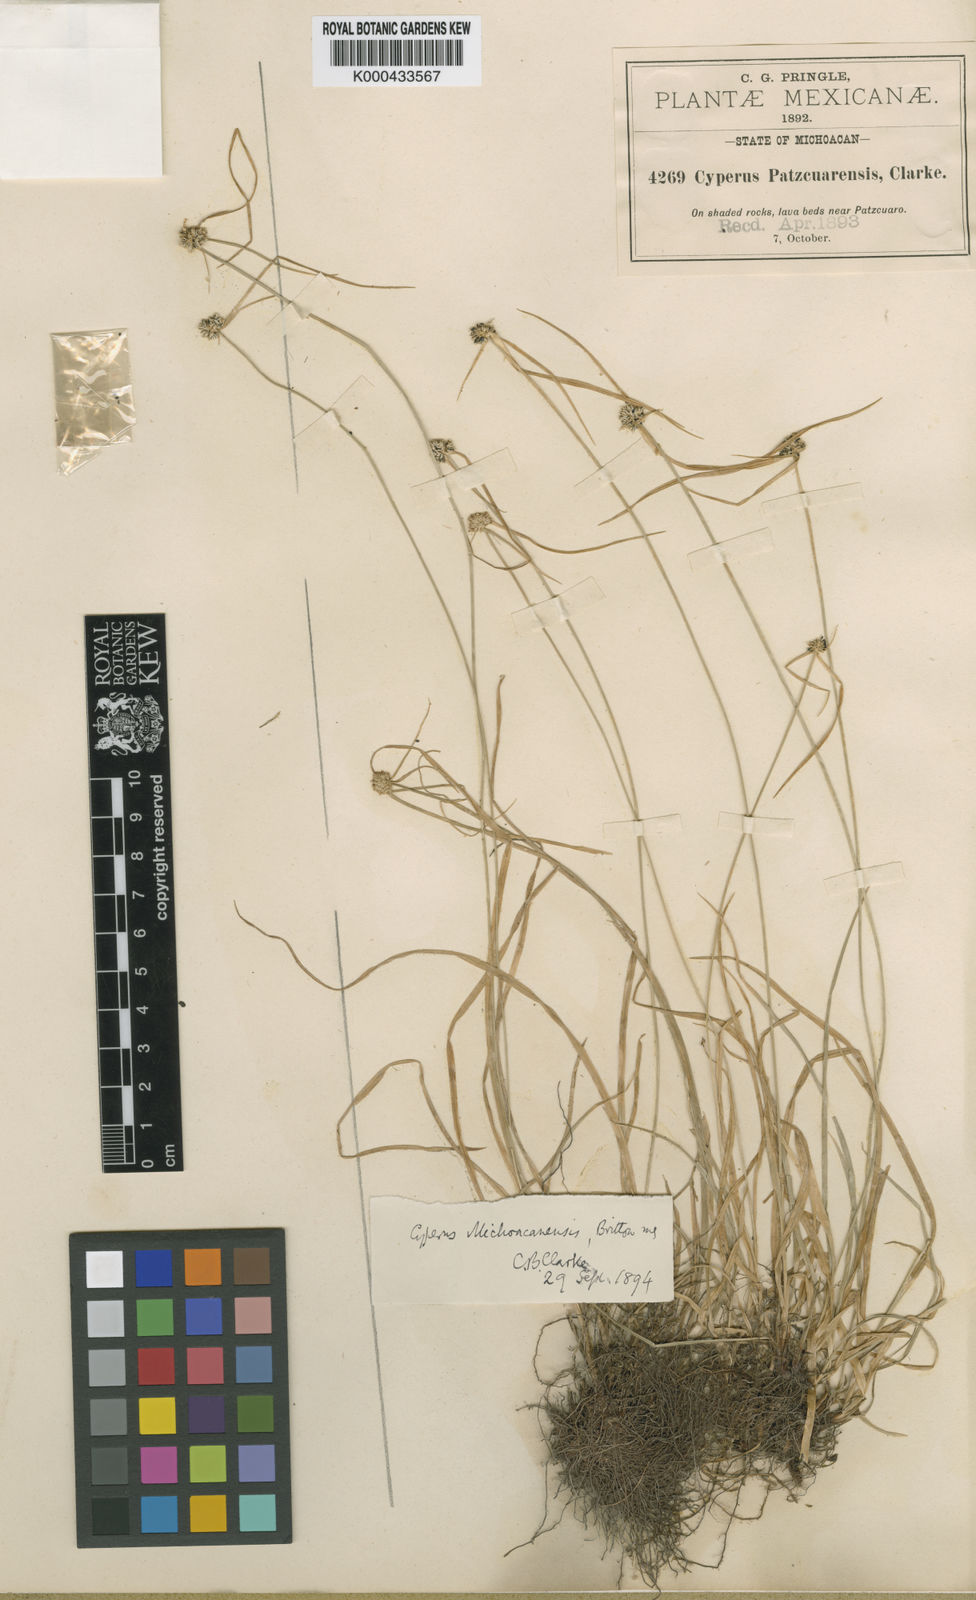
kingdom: Plantae
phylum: Tracheophyta
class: Liliopsida
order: Poales
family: Cyperaceae
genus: Cyperus
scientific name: Cyperus
